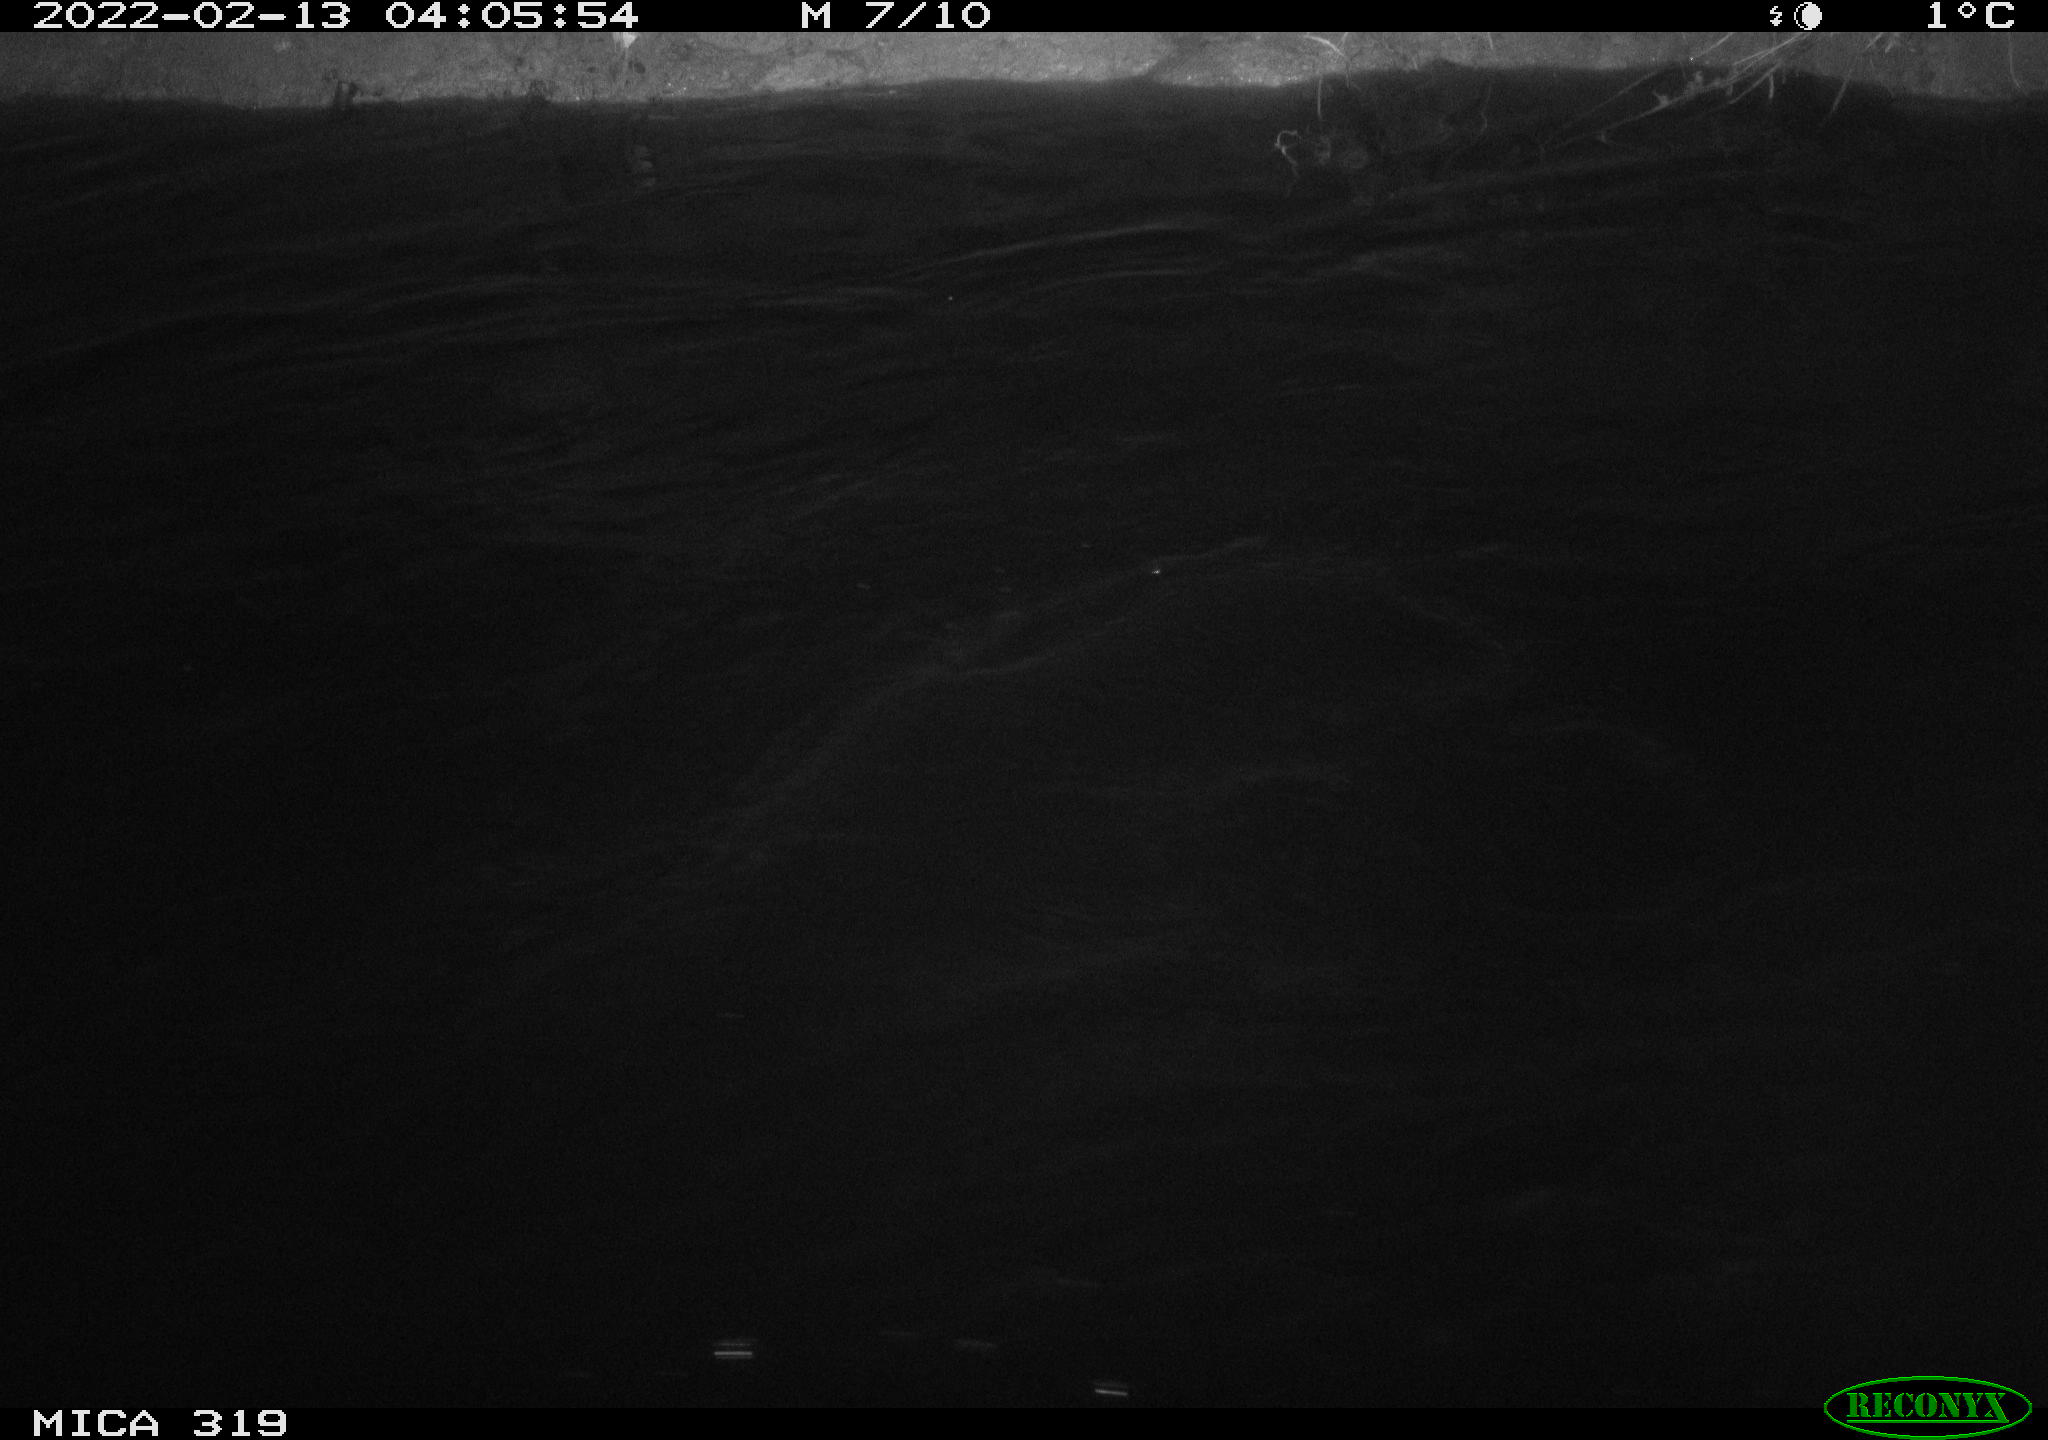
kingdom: Animalia
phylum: Chordata
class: Aves
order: Anseriformes
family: Anatidae
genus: Anas
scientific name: Anas platyrhynchos
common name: Mallard
